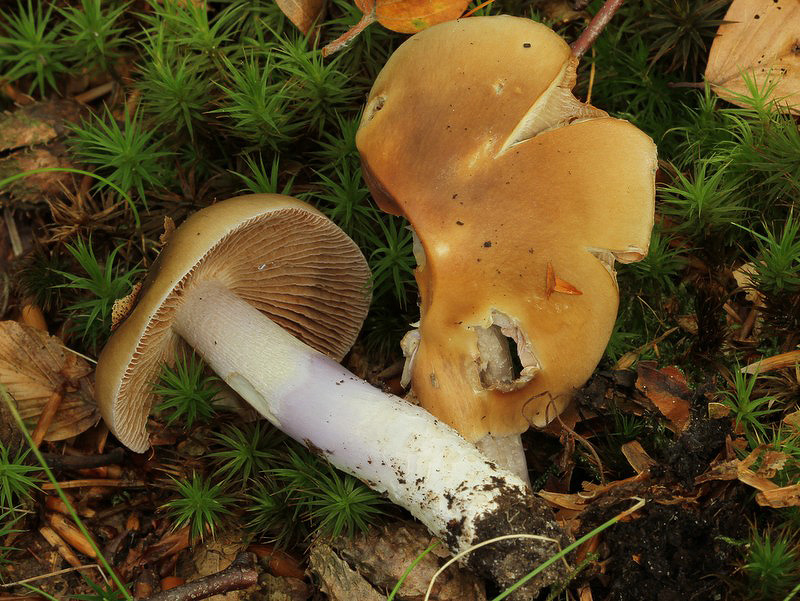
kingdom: Fungi
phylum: Basidiomycota
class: Agaricomycetes
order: Agaricales
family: Cortinariaceae
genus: Cortinarius
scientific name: Cortinarius elatior
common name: høj slørhat
